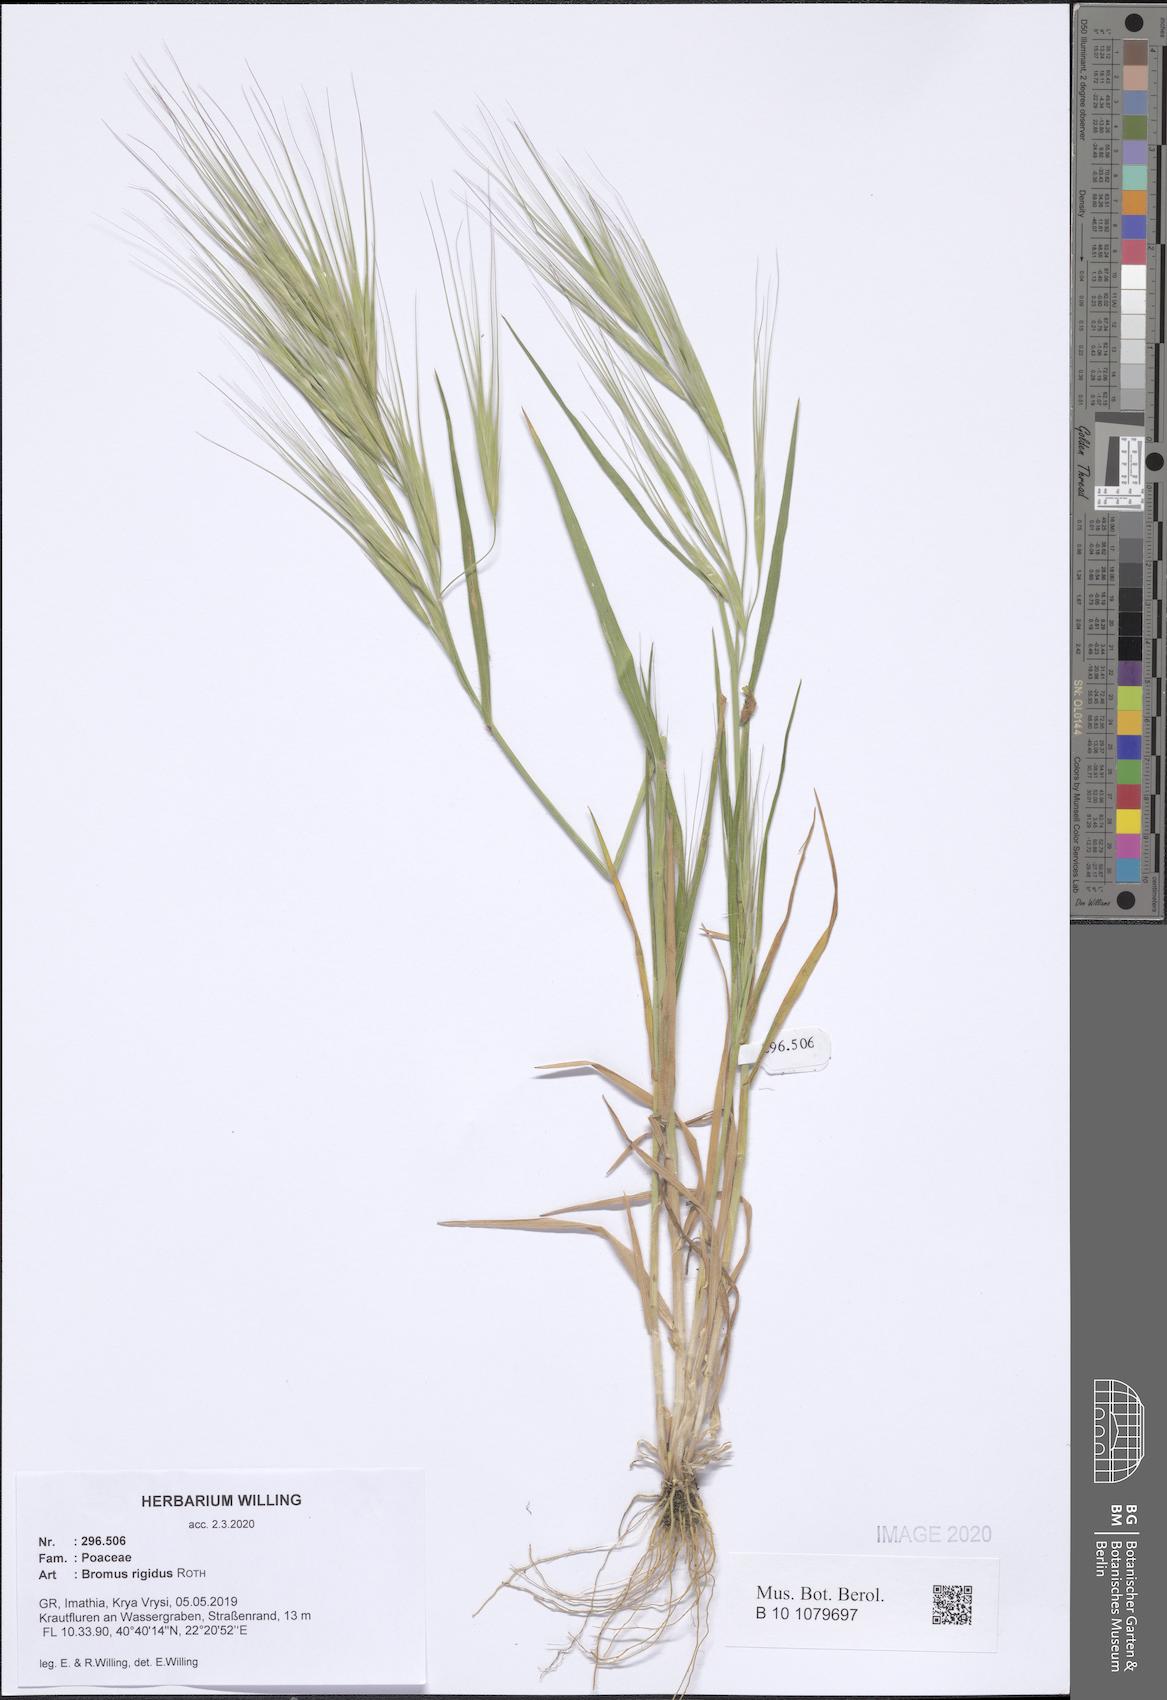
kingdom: Plantae
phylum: Tracheophyta
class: Liliopsida
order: Poales
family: Poaceae
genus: Bromus
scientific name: Bromus rigidus
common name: Ripgut brome
